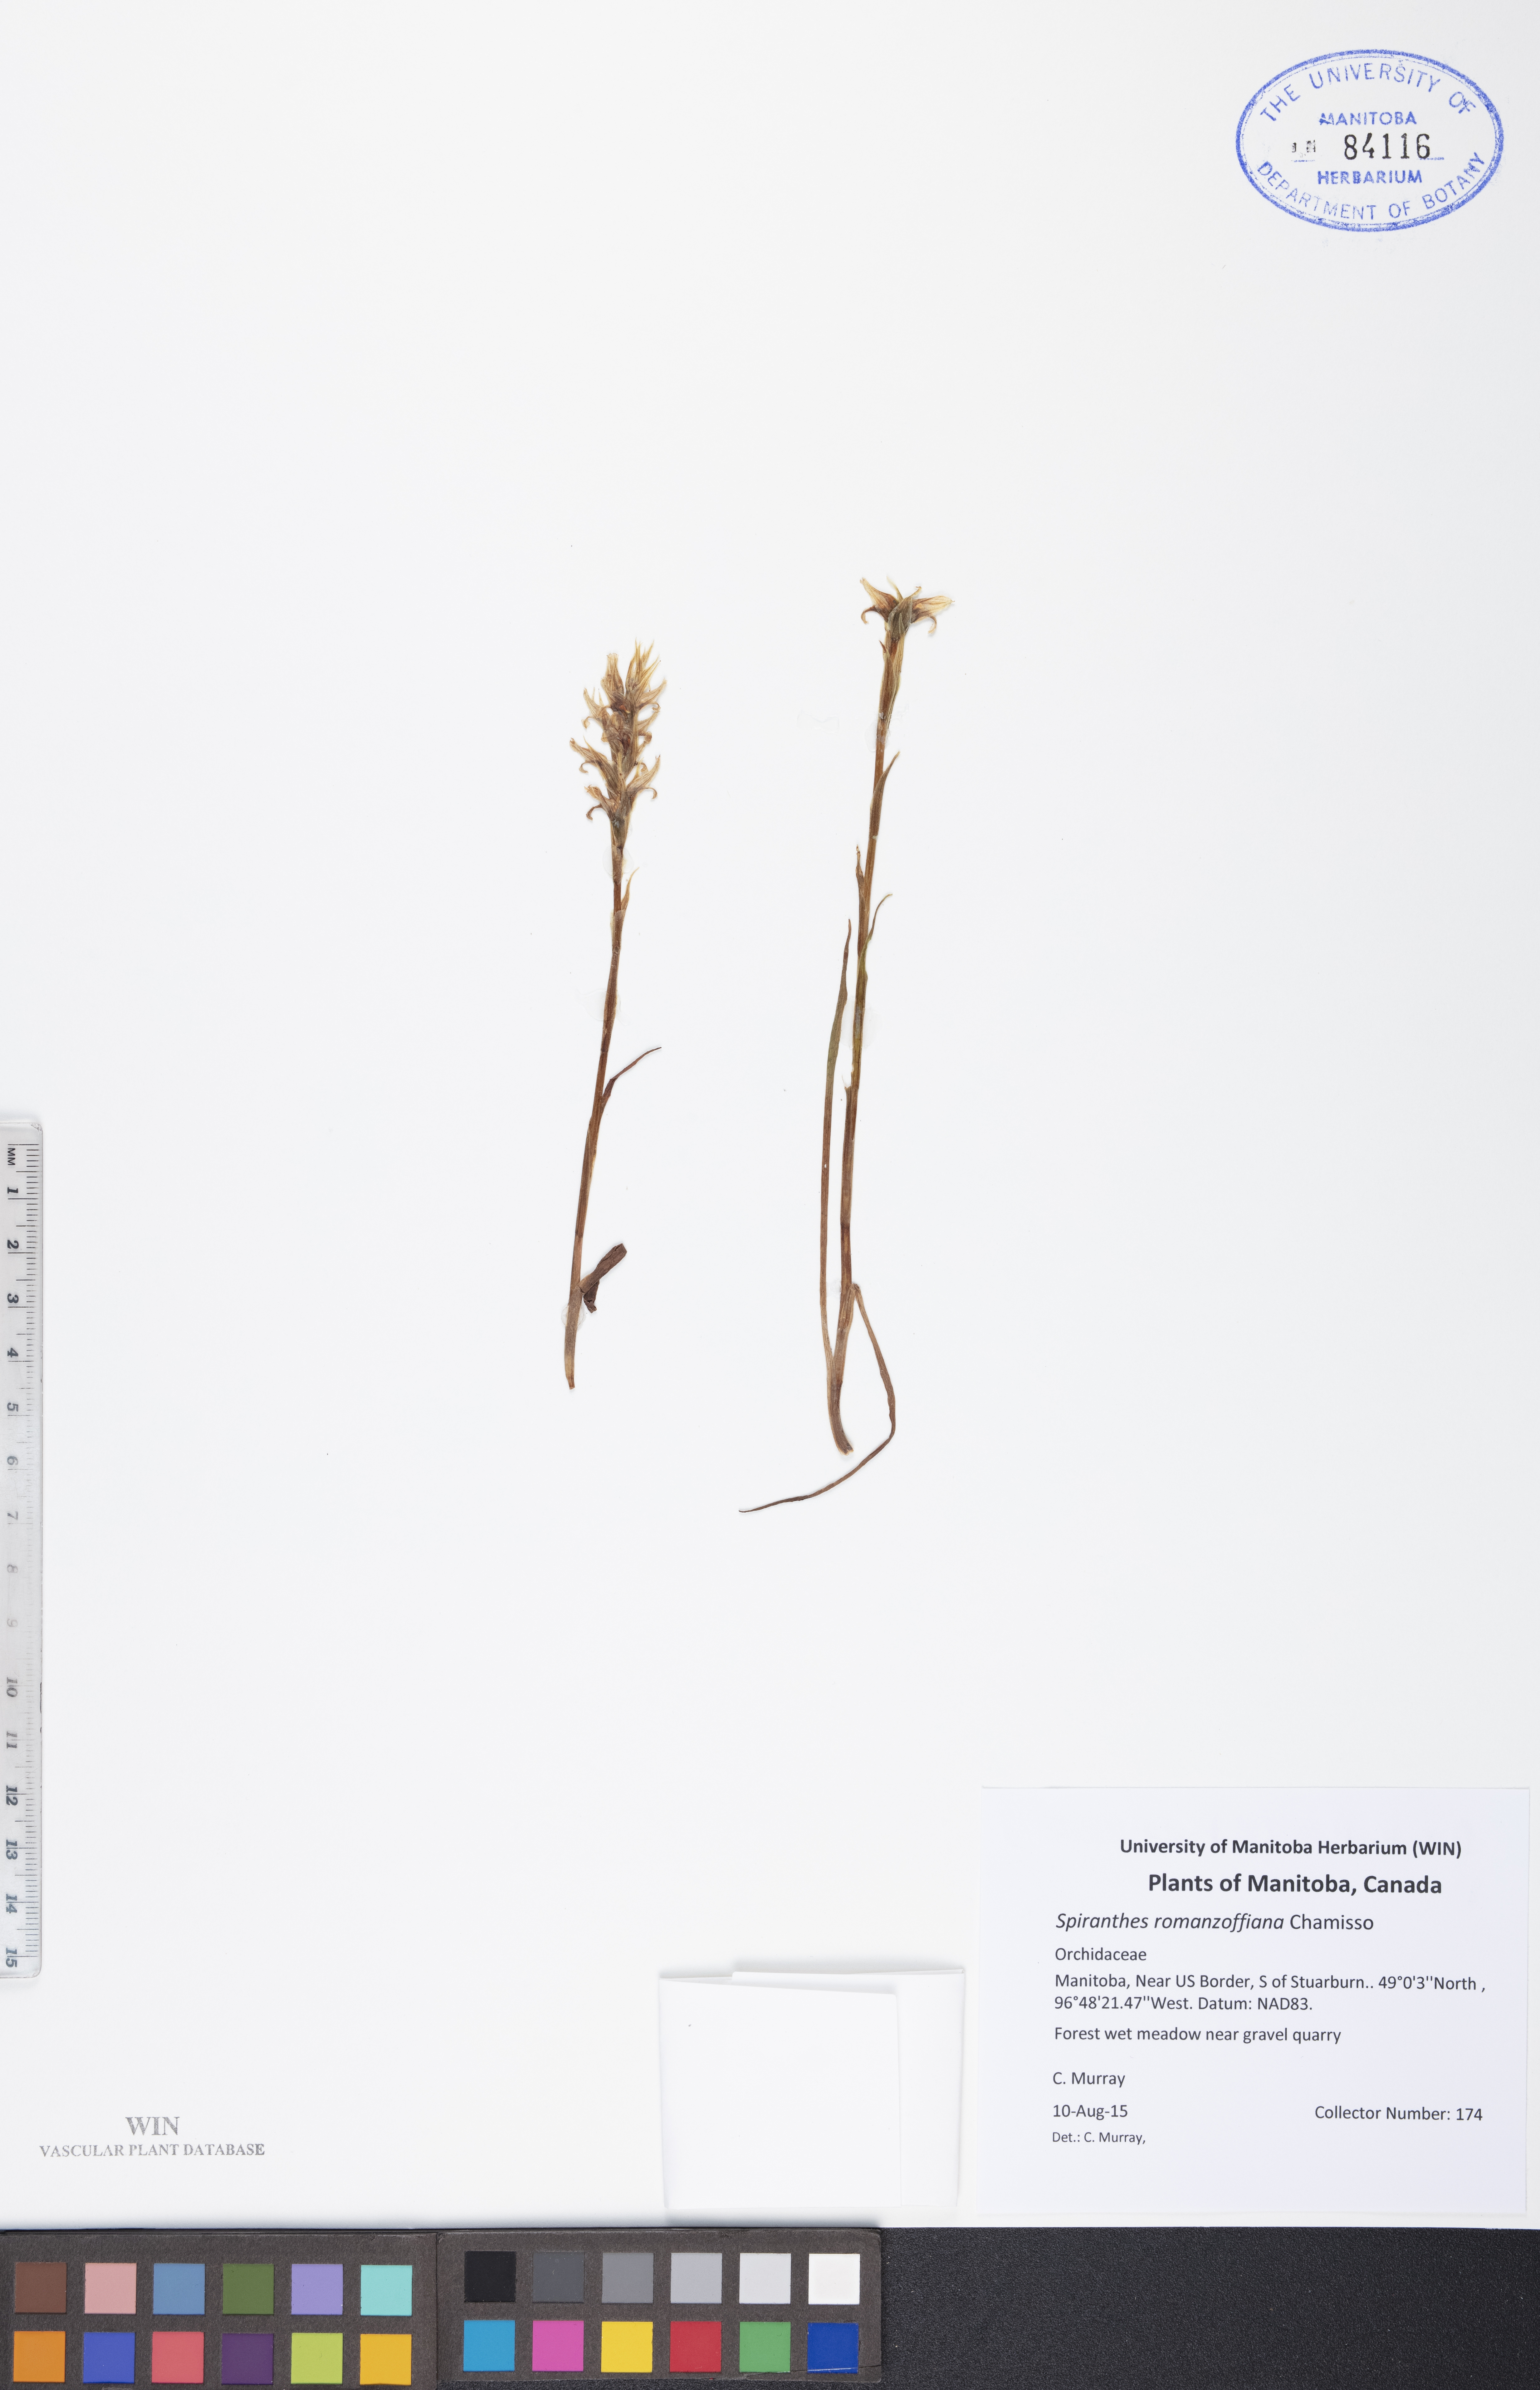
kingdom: Plantae
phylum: Tracheophyta
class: Liliopsida
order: Asparagales
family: Orchidaceae
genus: Spiranthes
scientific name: Spiranthes romanzoffiana
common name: Irish lady's-tresses
